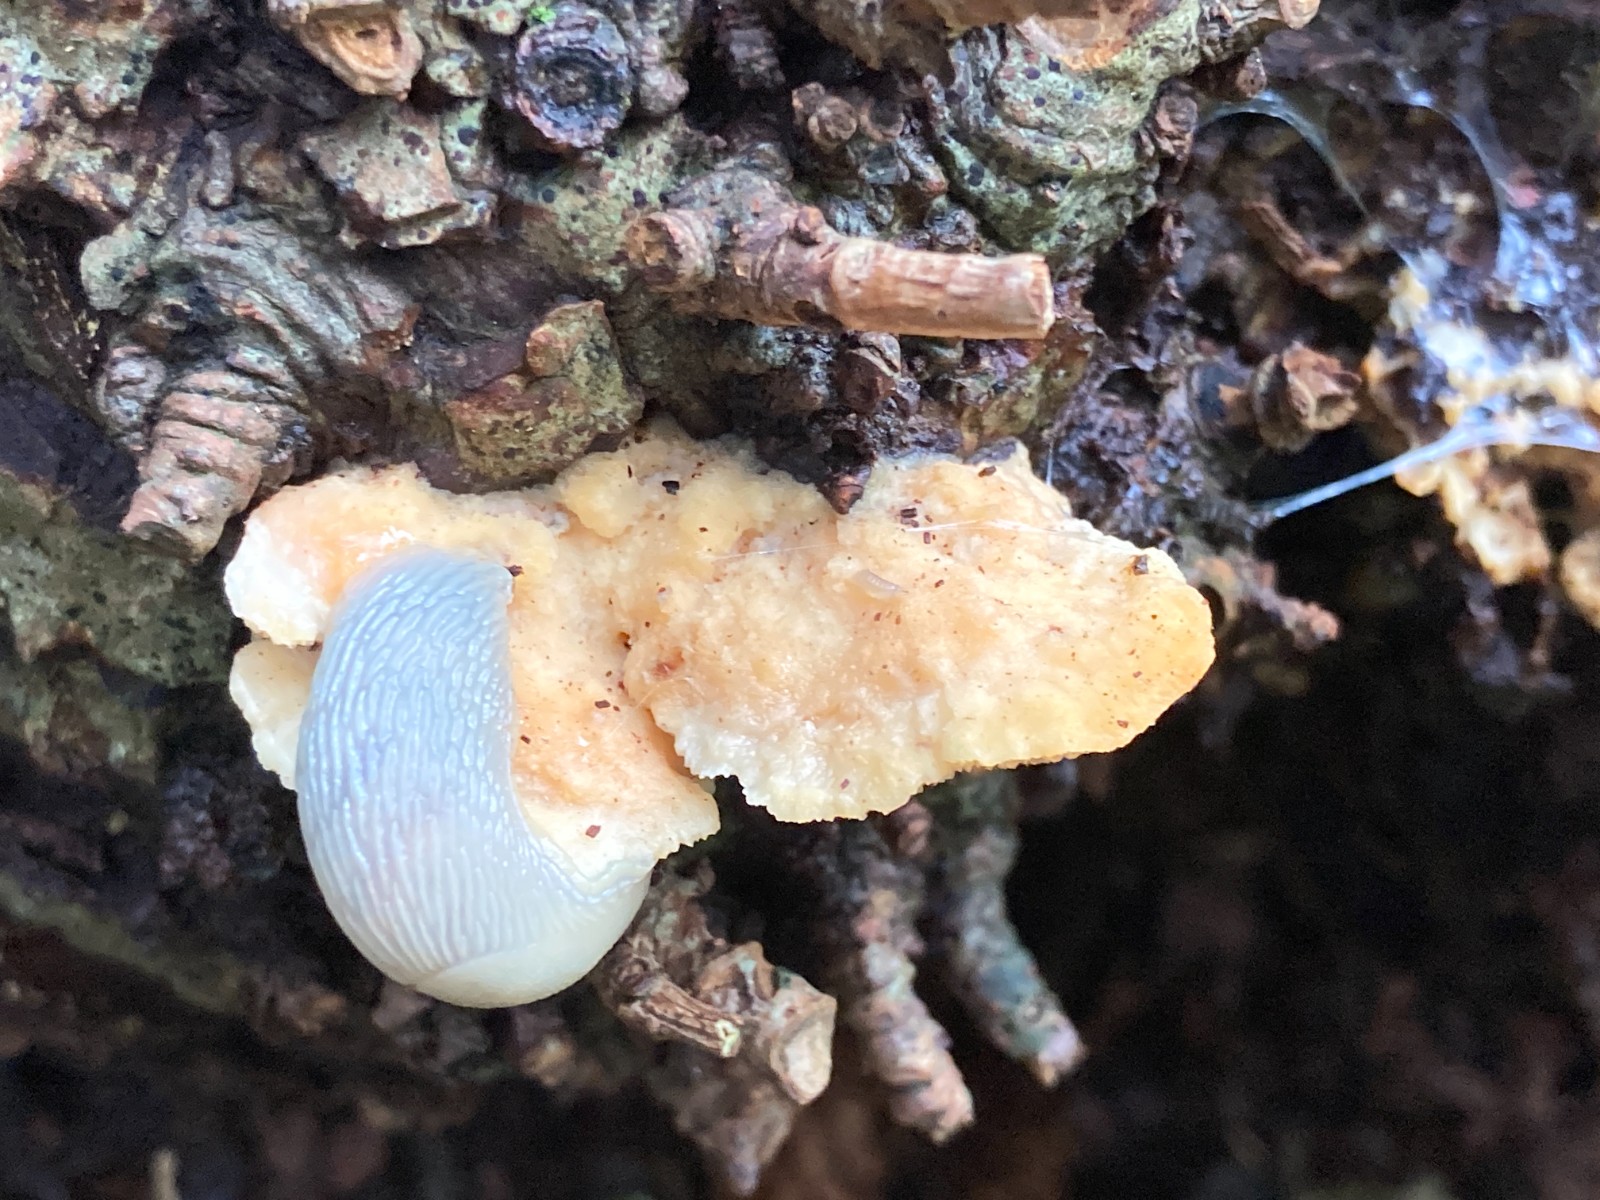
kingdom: Fungi
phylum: Basidiomycota
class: Agaricomycetes
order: Polyporales
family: Steccherinaceae
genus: Antrodiella
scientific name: Antrodiella serpula
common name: gulrandet elastikporesvamp
